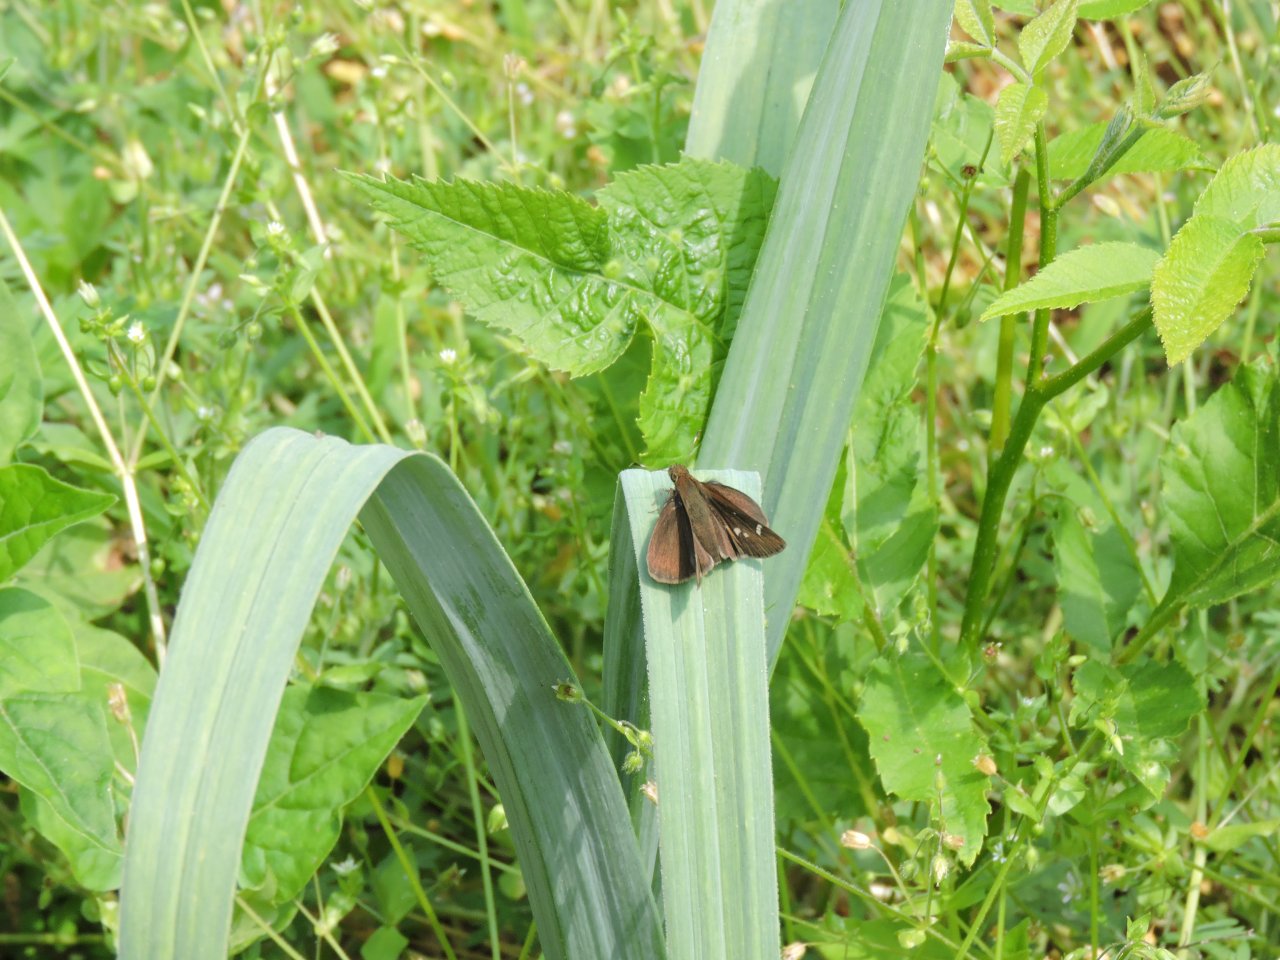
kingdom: Animalia
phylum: Arthropoda
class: Insecta
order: Lepidoptera
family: Hesperiidae
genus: Vernia
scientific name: Vernia verna
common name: Little Glassywing
